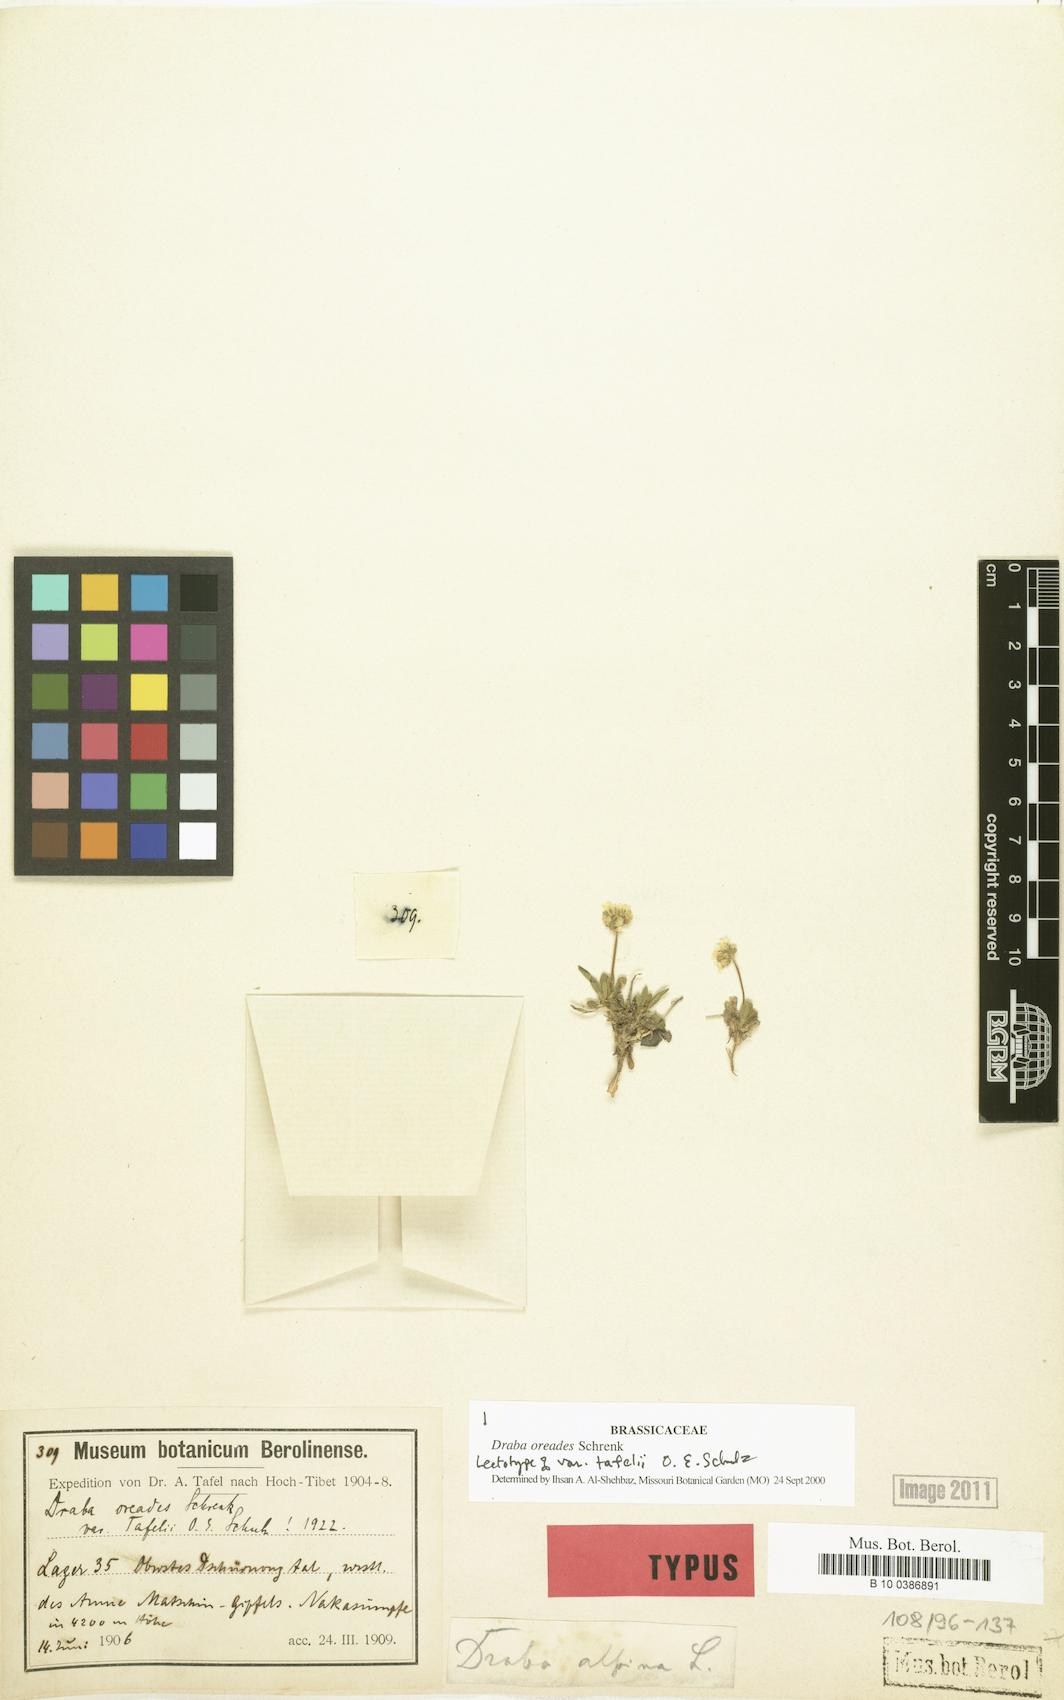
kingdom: Plantae
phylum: Tracheophyta
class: Magnoliopsida
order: Brassicales
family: Brassicaceae
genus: Draba
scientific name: Draba oreades
